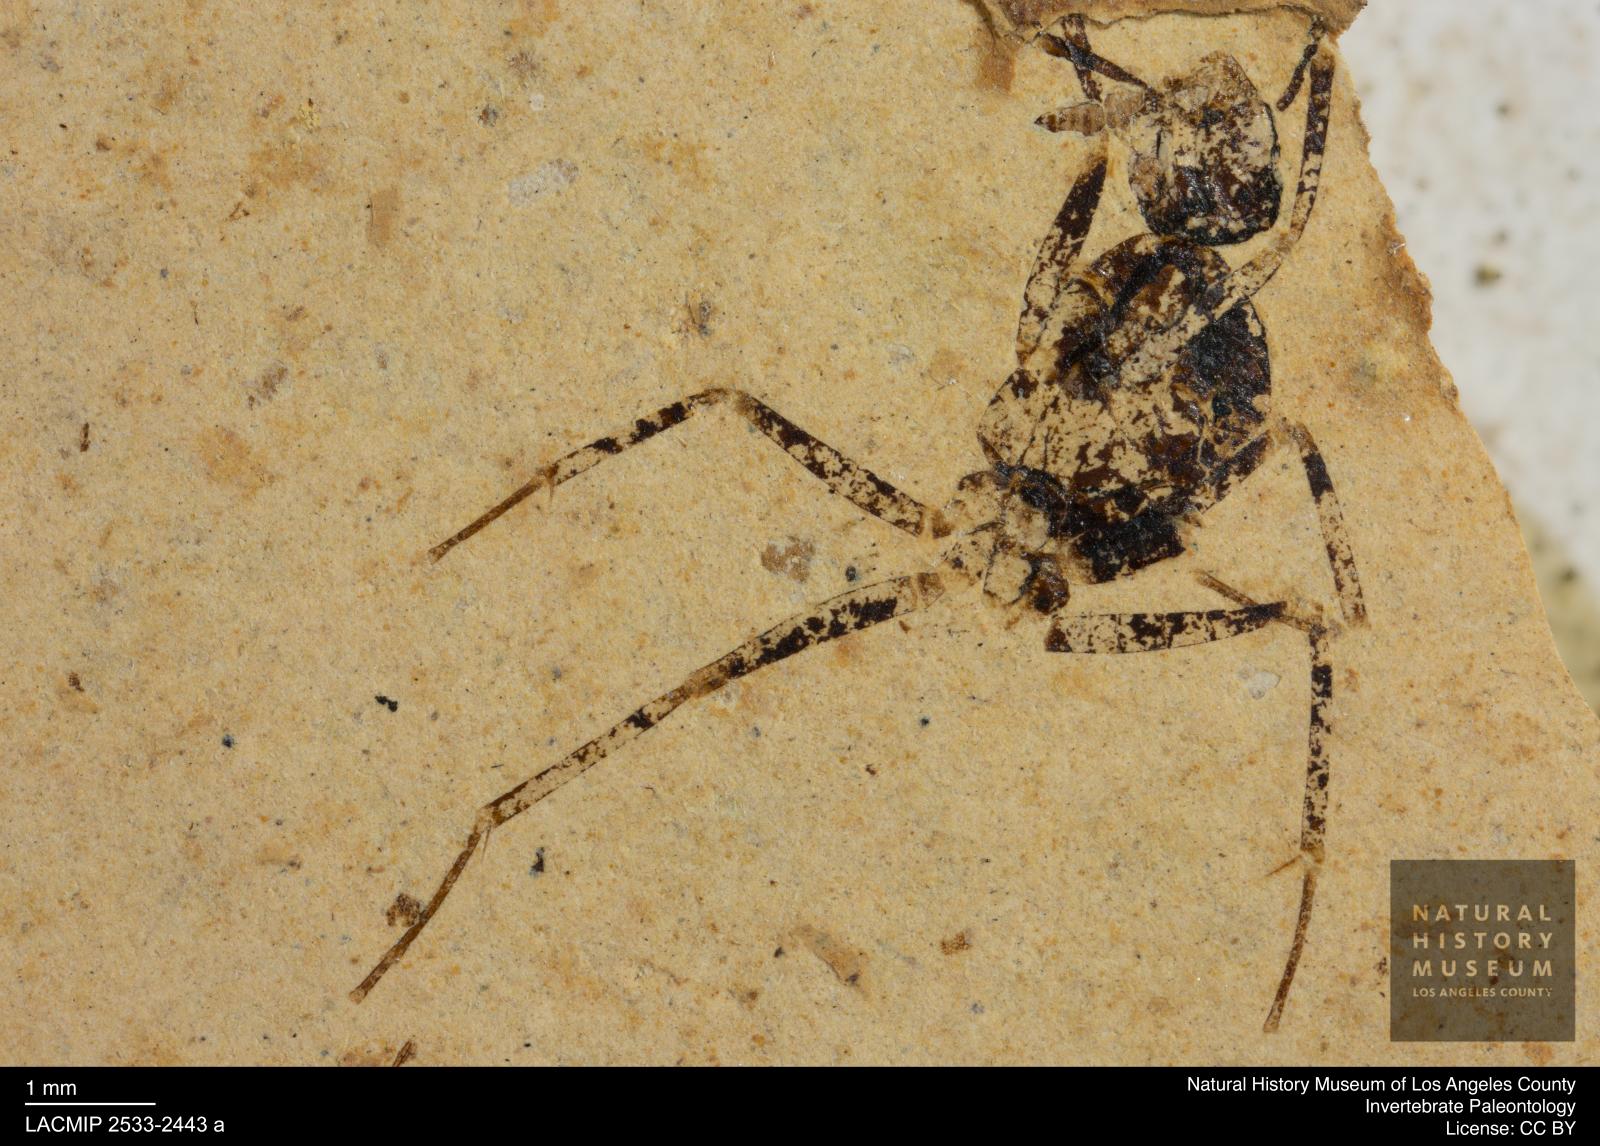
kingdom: Animalia
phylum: Arthropoda
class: Insecta
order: Hymenoptera
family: Formicidae
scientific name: Formicidae
